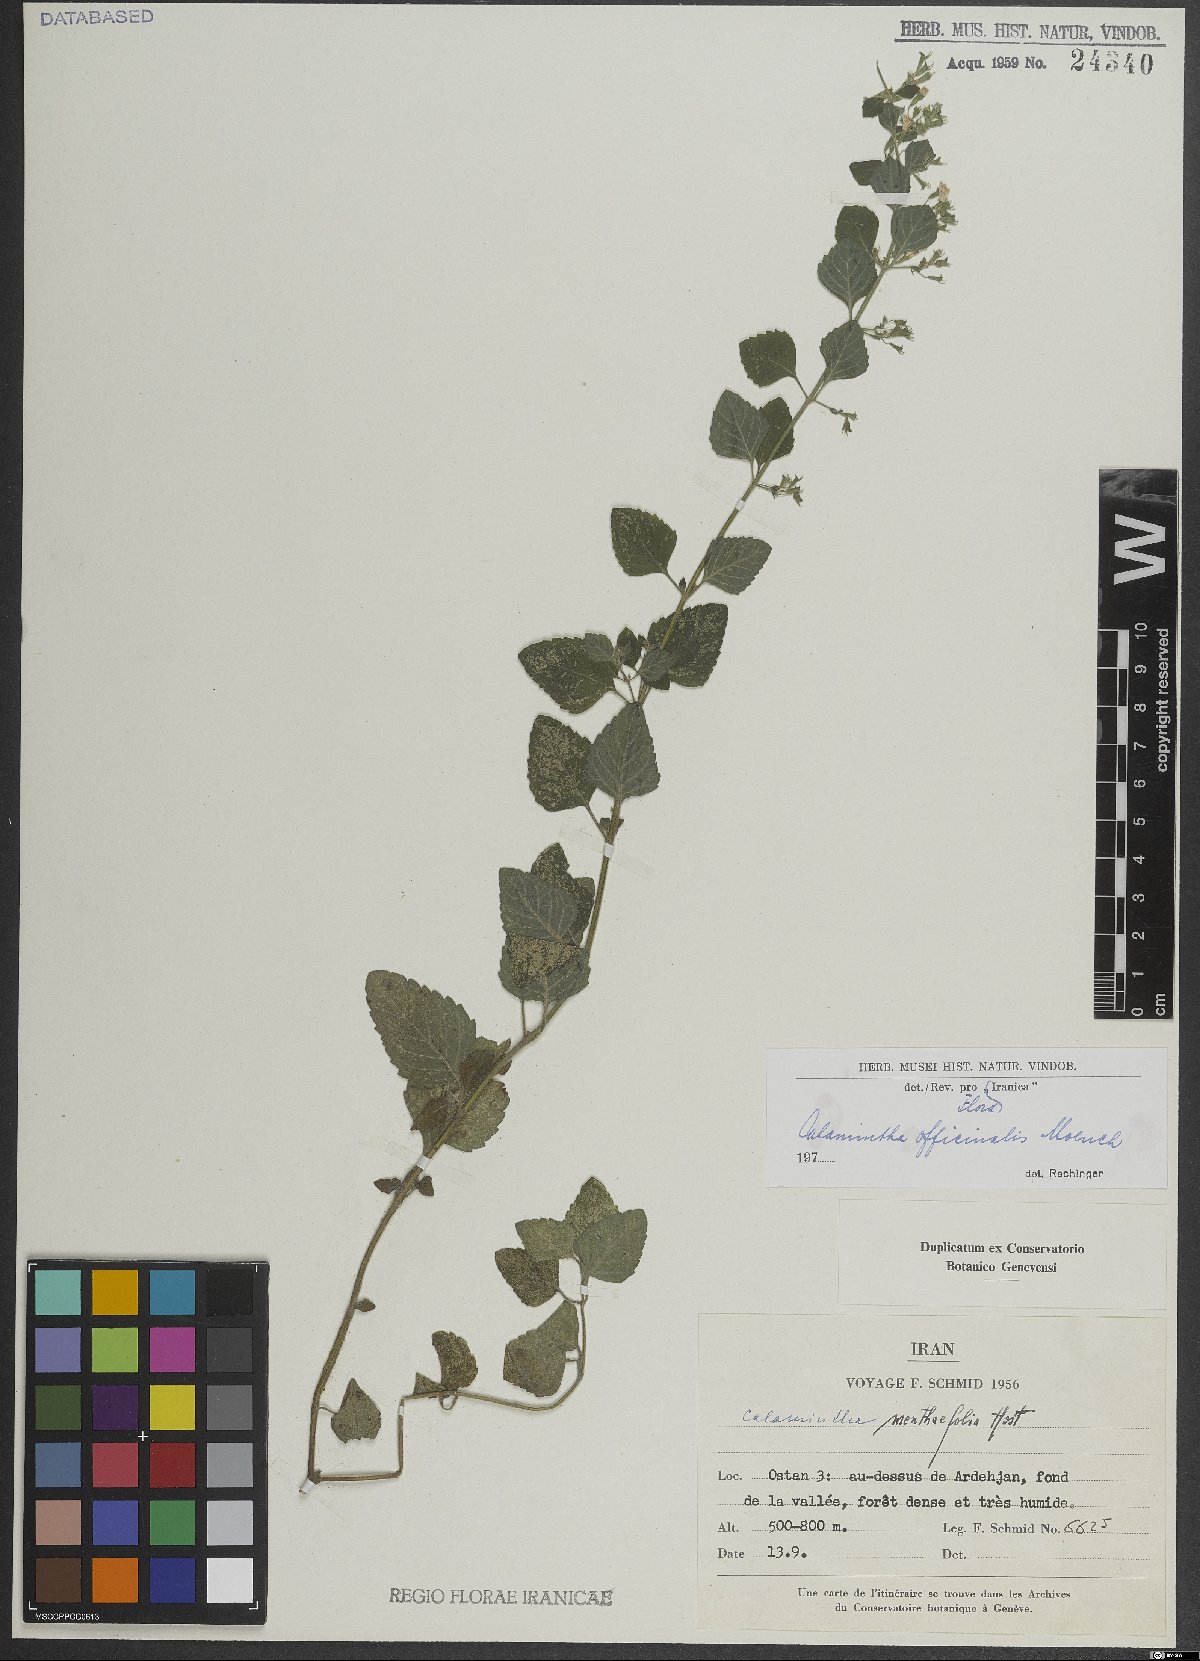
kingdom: Plantae
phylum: Tracheophyta
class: Magnoliopsida
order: Lamiales
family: Lamiaceae
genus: Clinopodium
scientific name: Clinopodium nepeta
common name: Lesser calamint
